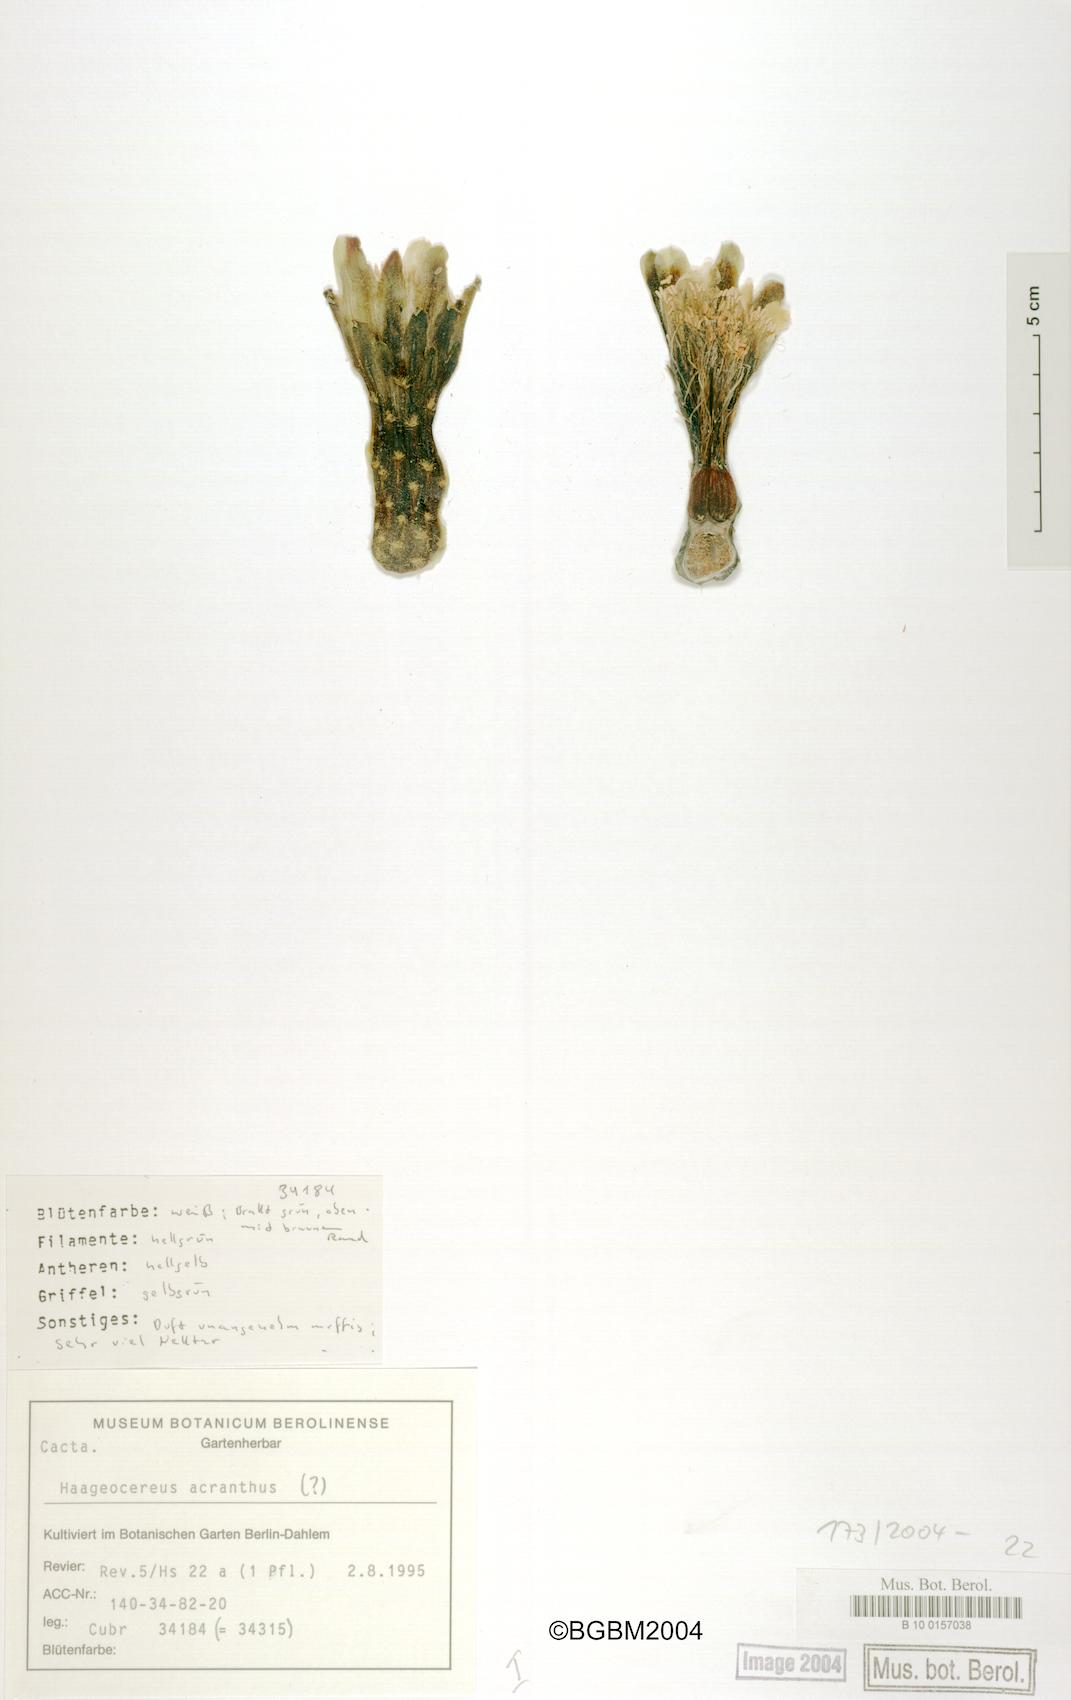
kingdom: Plantae
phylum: Tracheophyta
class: Magnoliopsida
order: Caryophyllales
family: Cactaceae
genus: Haageocereus
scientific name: Haageocereus acranthus
